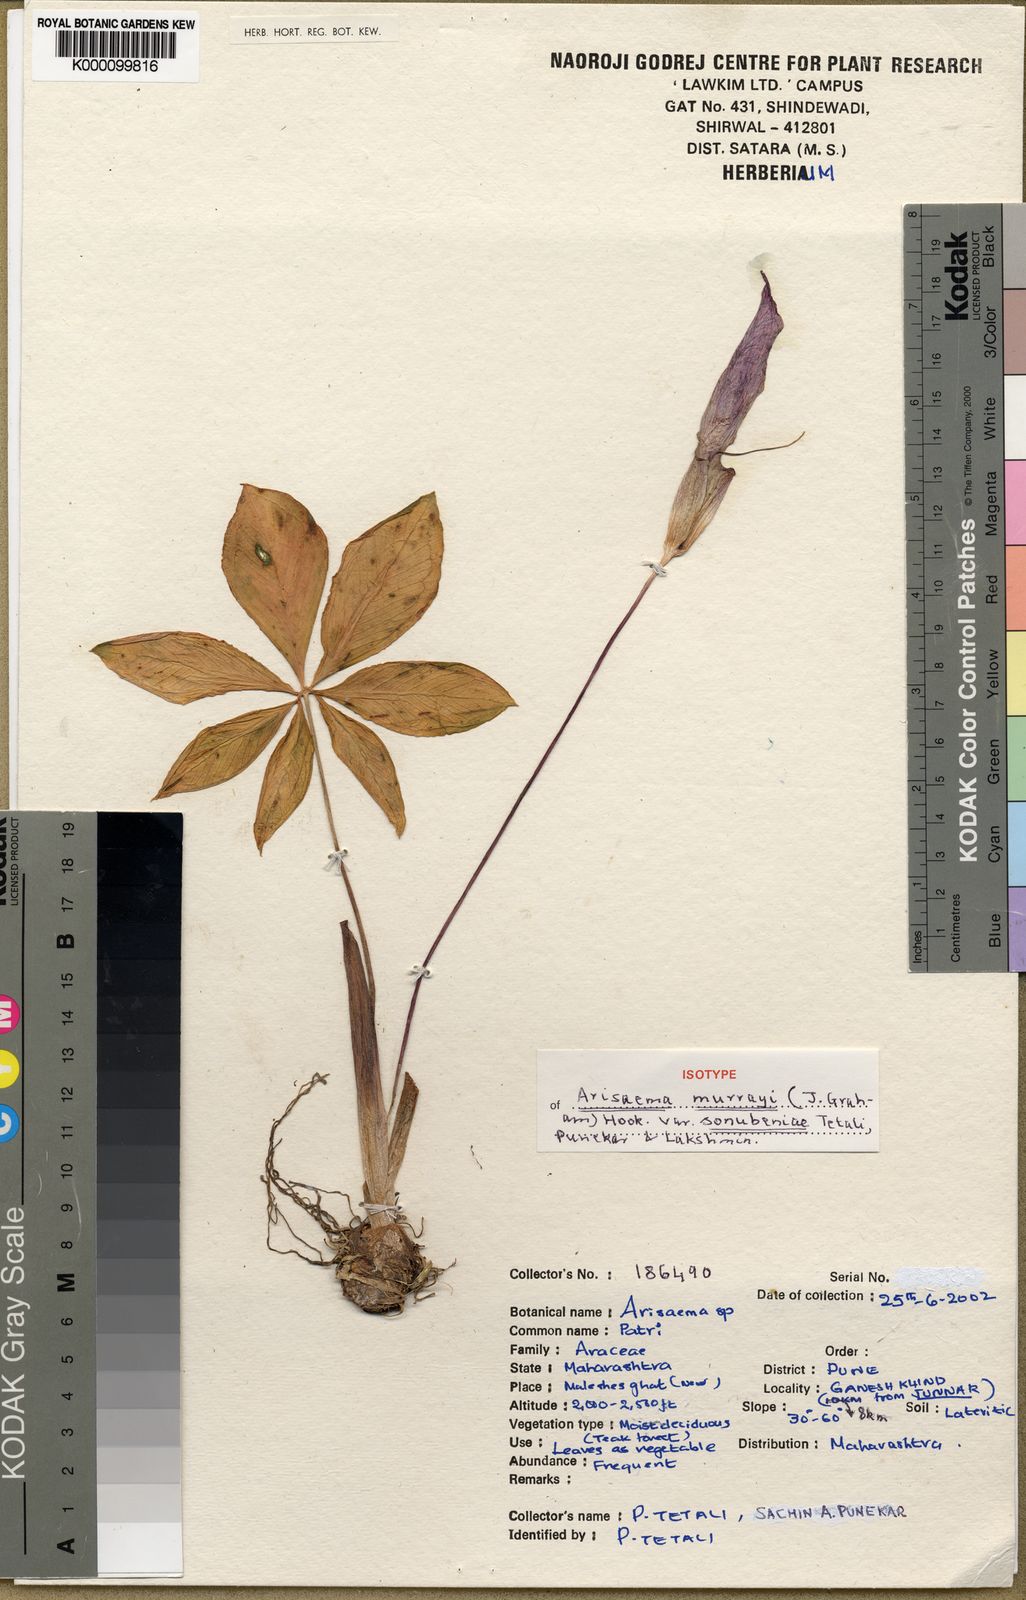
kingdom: Plantae
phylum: Tracheophyta
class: Liliopsida
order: Alismatales
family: Araceae
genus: Arisaema
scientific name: Arisaema murrayi
